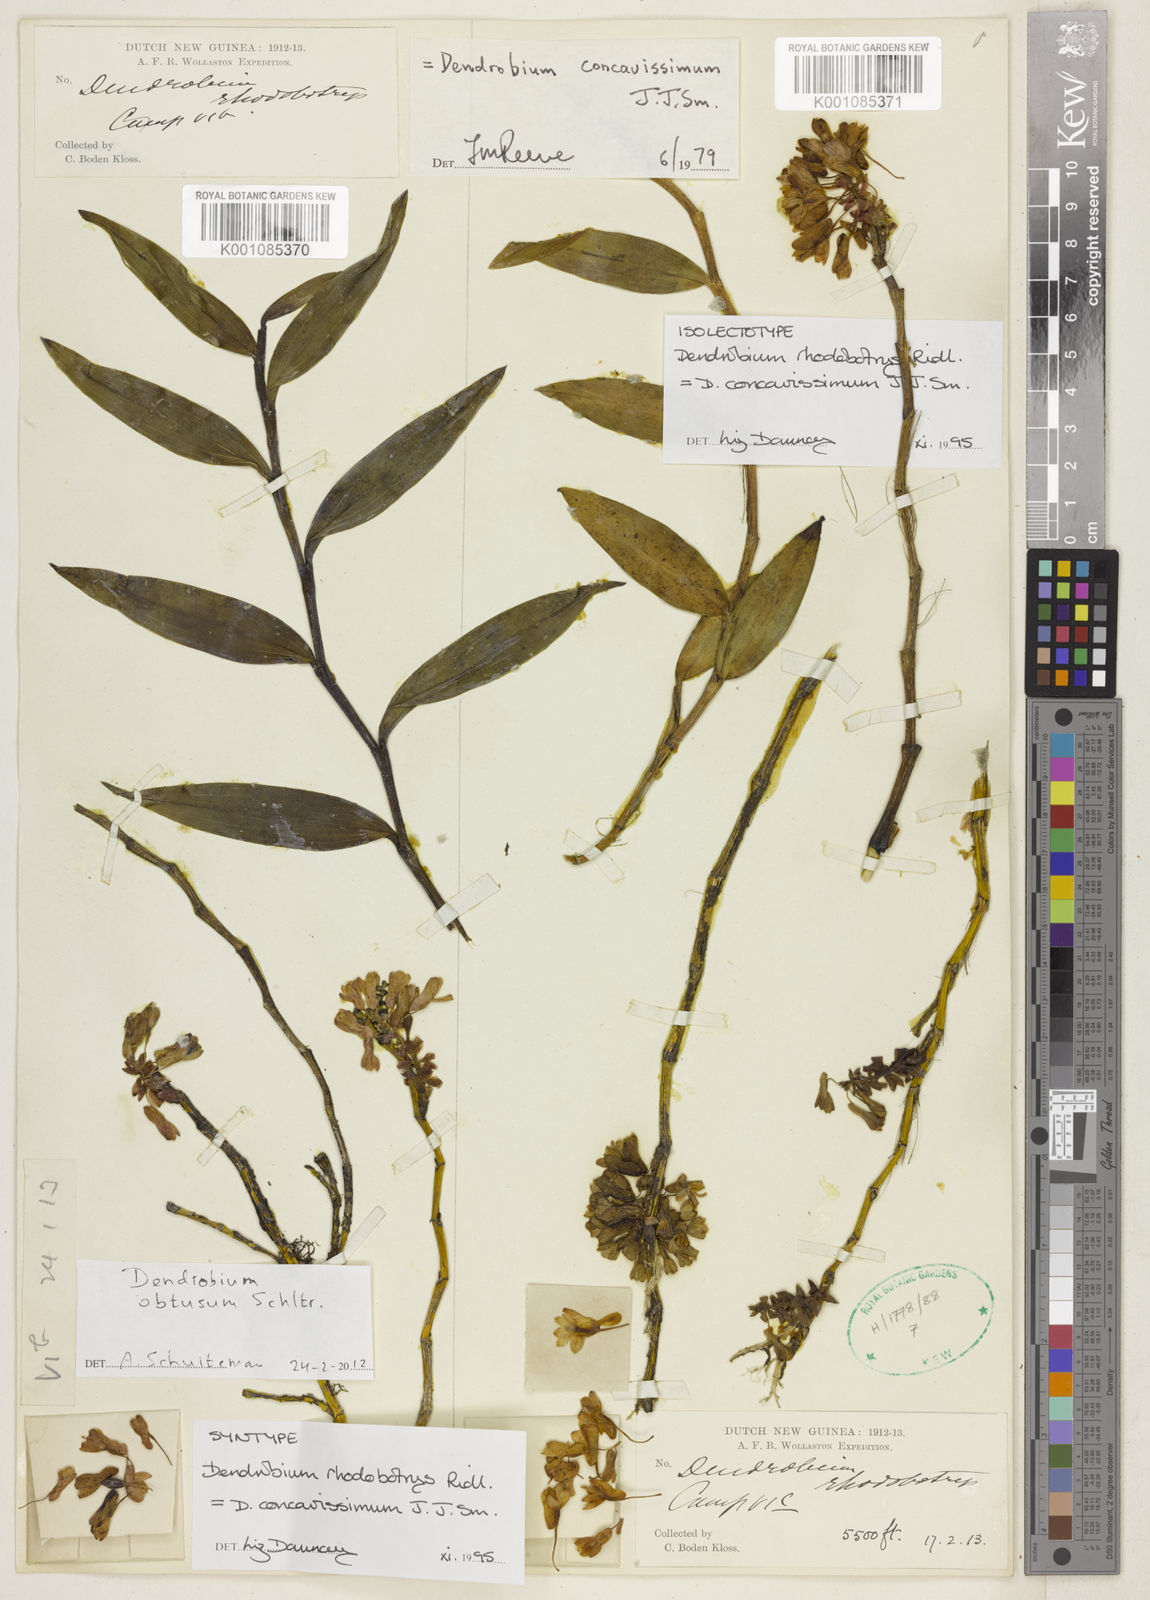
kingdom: Plantae
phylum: Tracheophyta
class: Liliopsida
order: Asparagales
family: Orchidaceae
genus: Dendrobium
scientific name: Dendrobium obtusum
